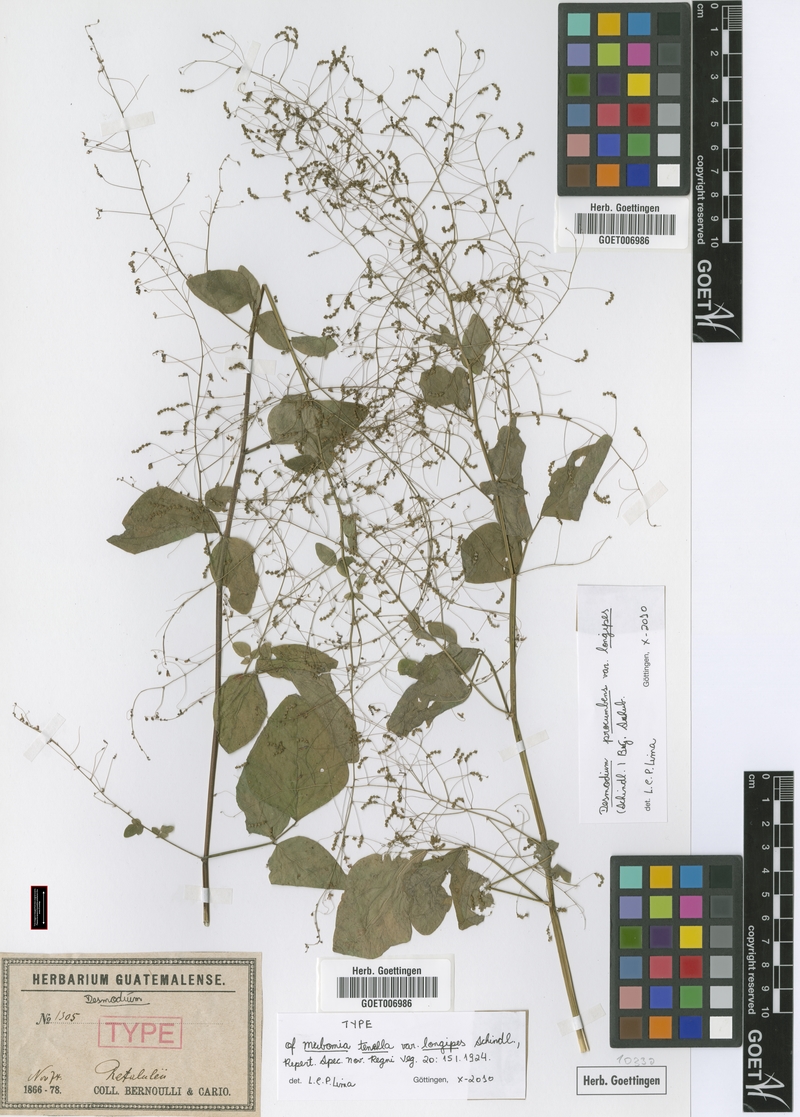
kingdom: Plantae
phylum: Tracheophyta
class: Magnoliopsida
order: Fabales
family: Fabaceae
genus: Desmodium
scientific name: Desmodium procumbens
